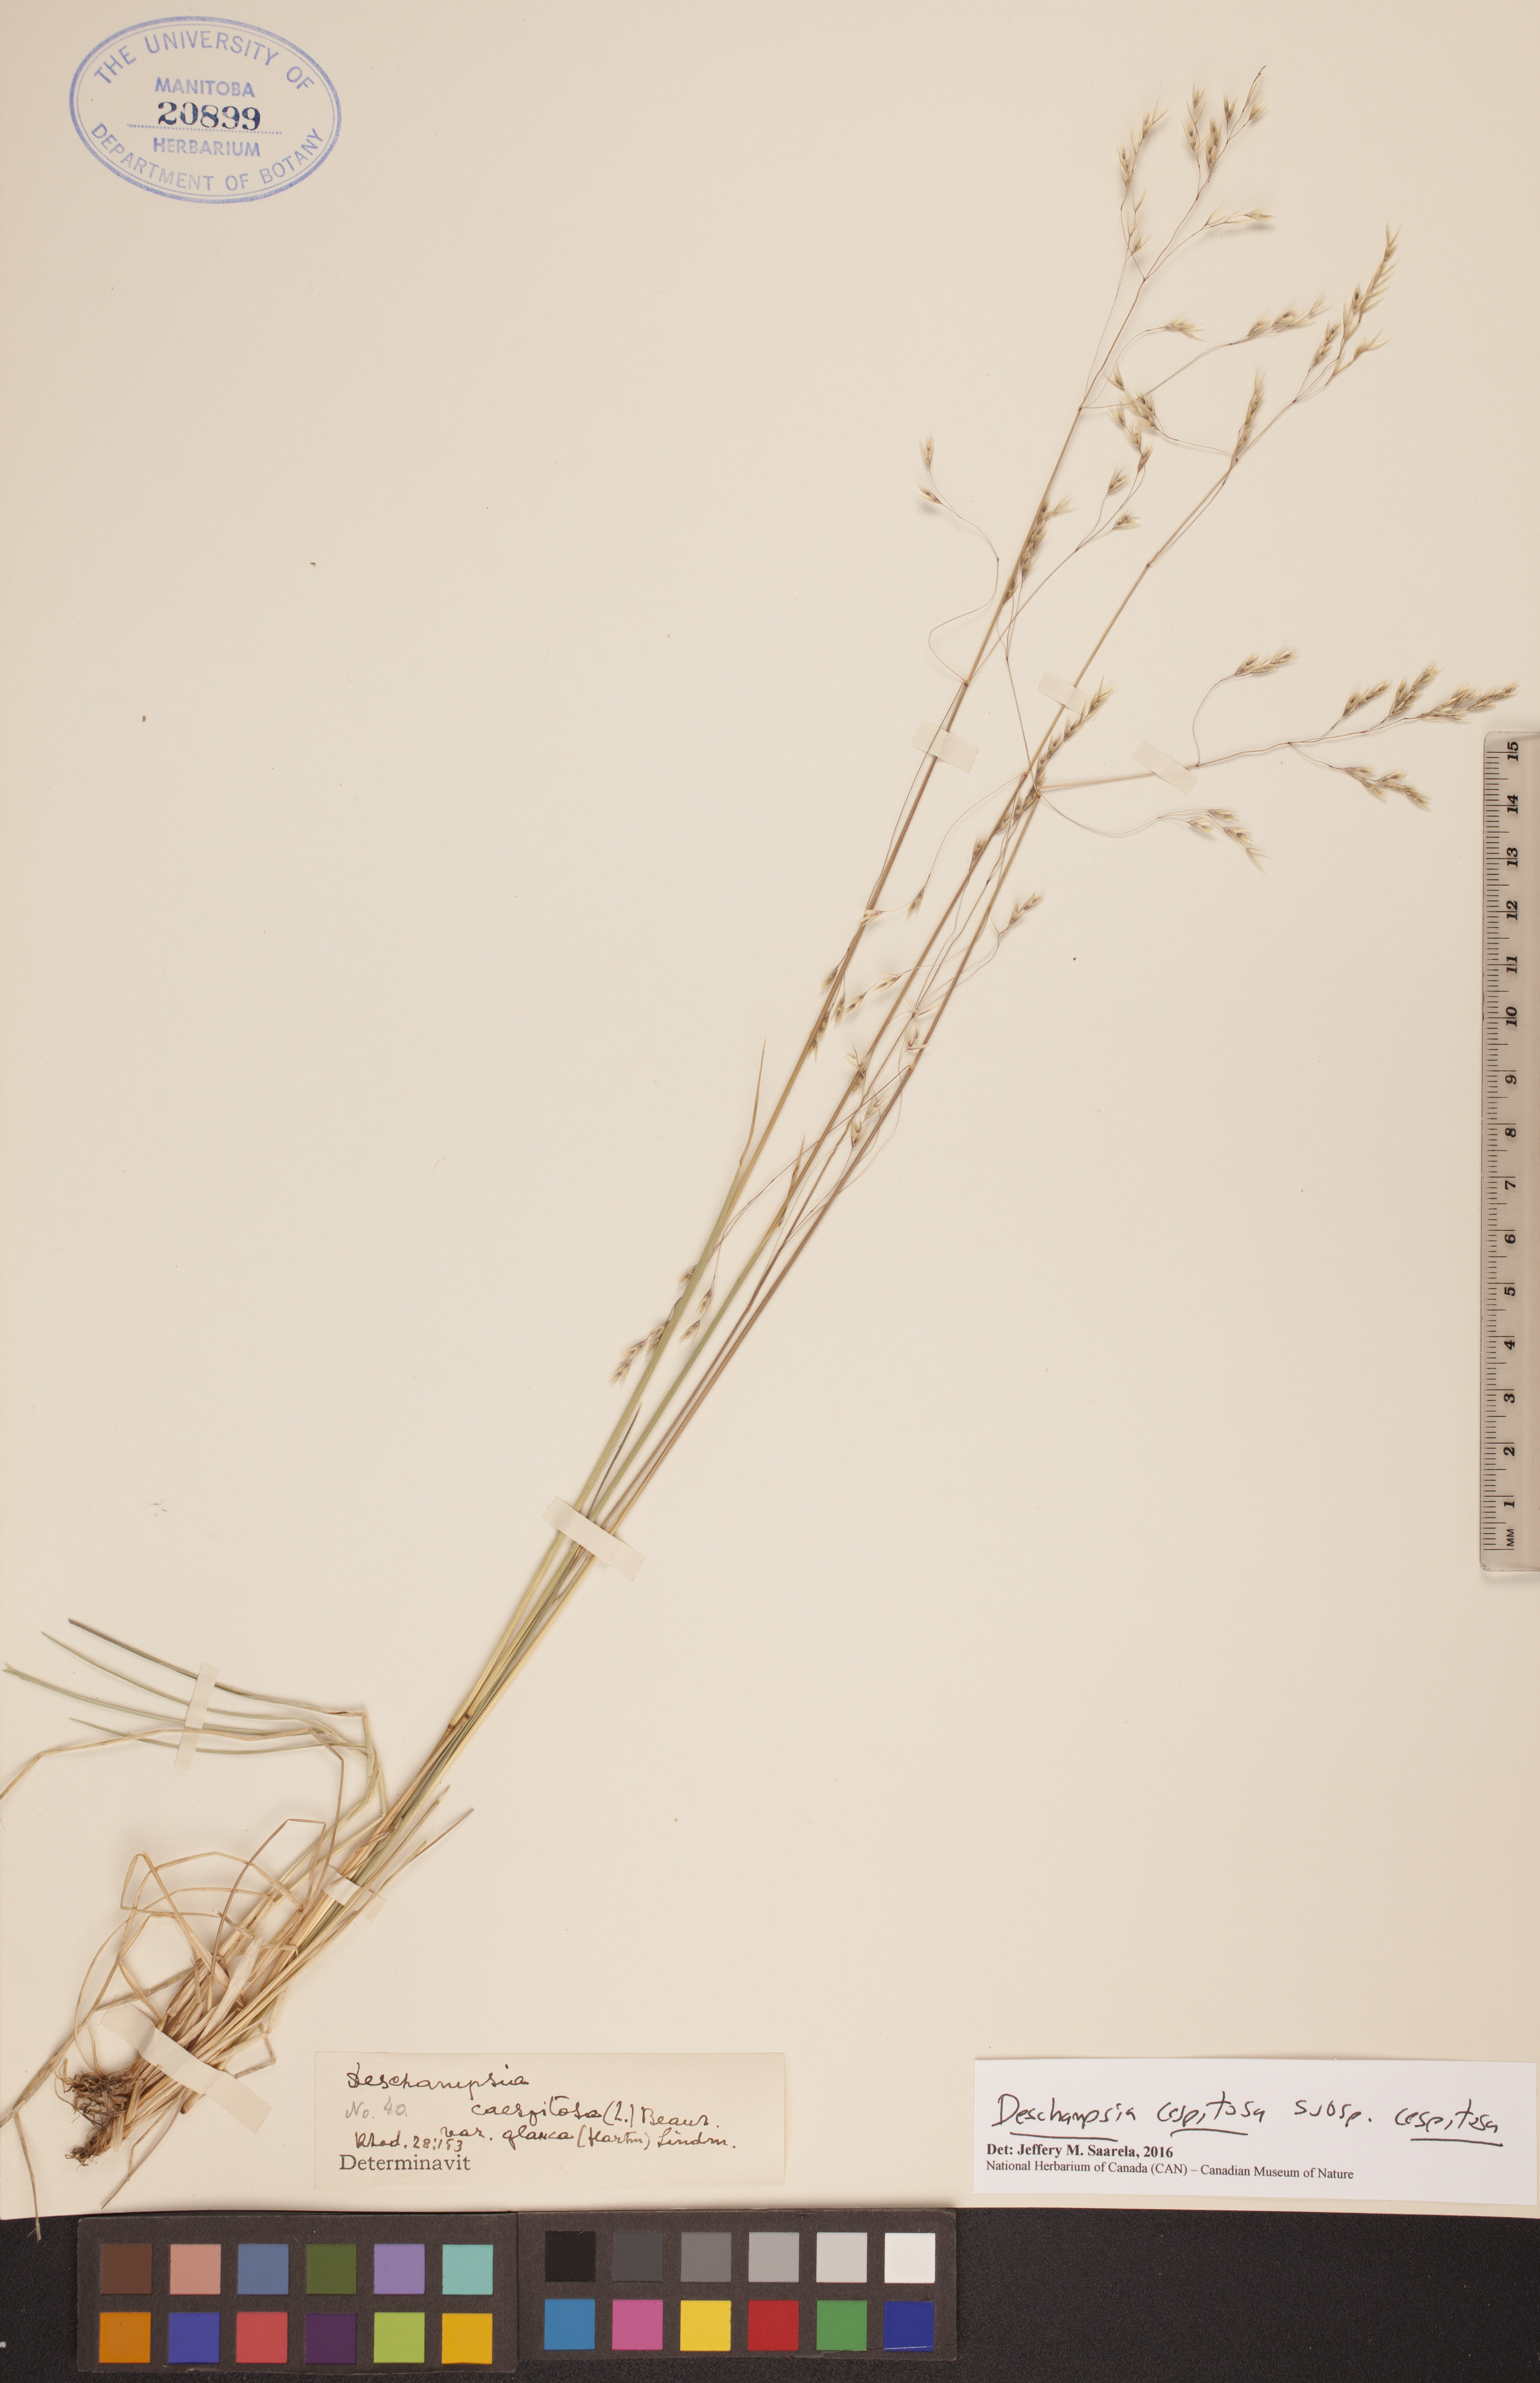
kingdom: Plantae
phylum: Tracheophyta
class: Liliopsida
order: Poales
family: Poaceae
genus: Deschampsia
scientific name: Deschampsia cespitosa
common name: Tufted hair-grass
